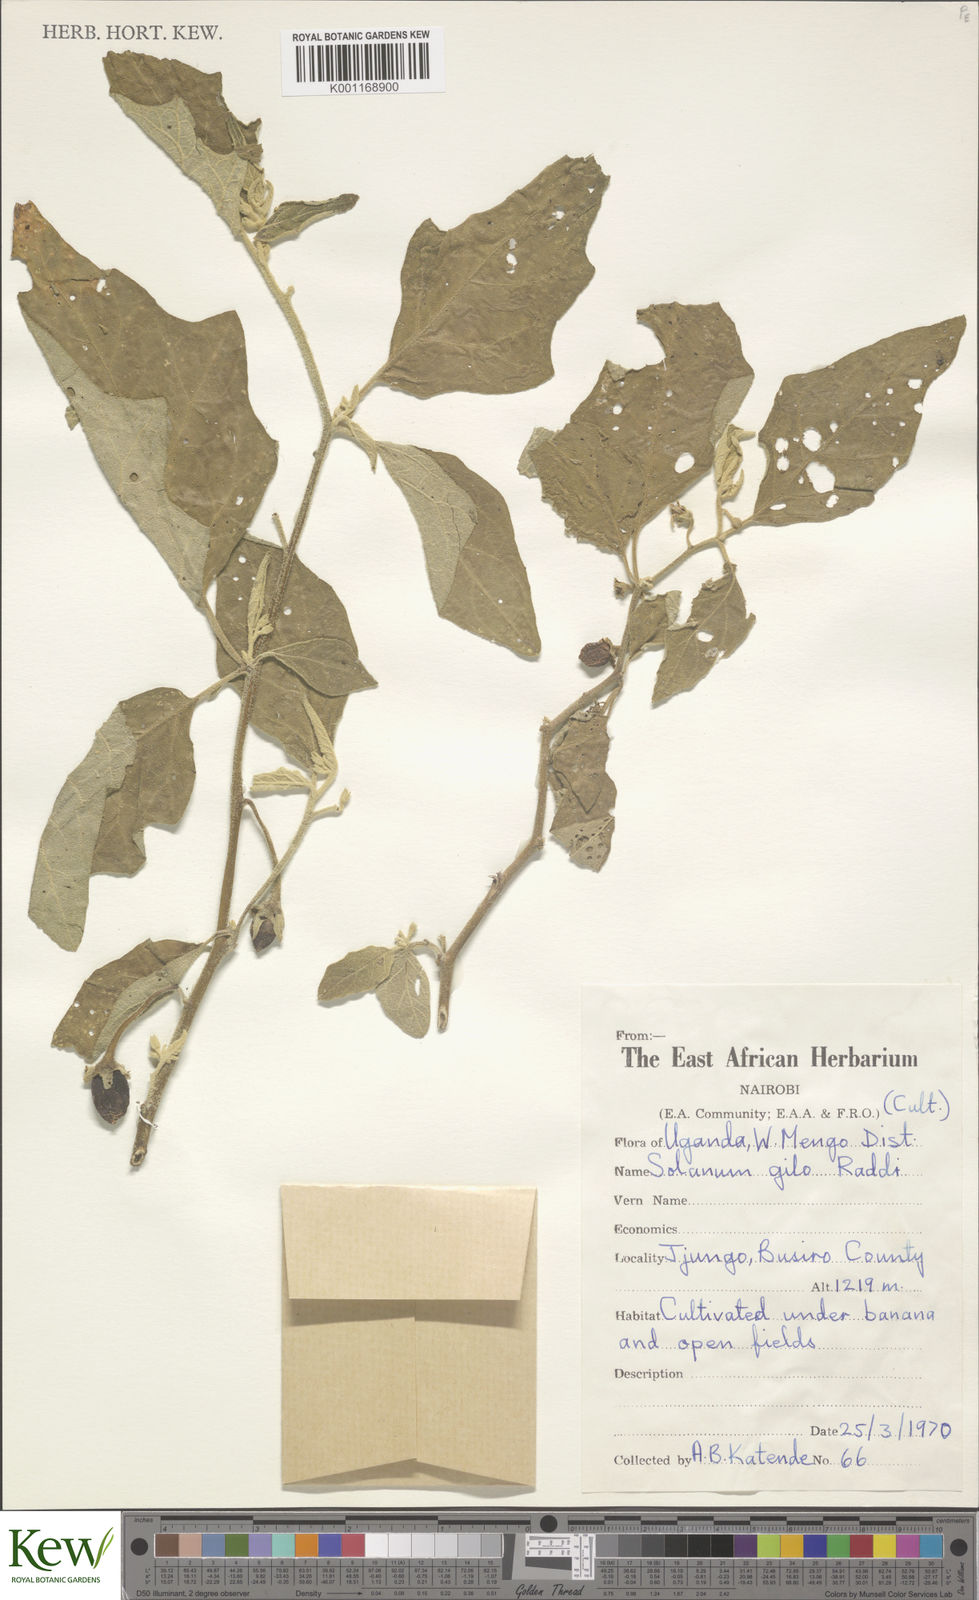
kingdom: Plantae
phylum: Tracheophyta
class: Magnoliopsida
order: Solanales
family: Solanaceae
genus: Solanum
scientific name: Solanum aethiopicum
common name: Gilo
